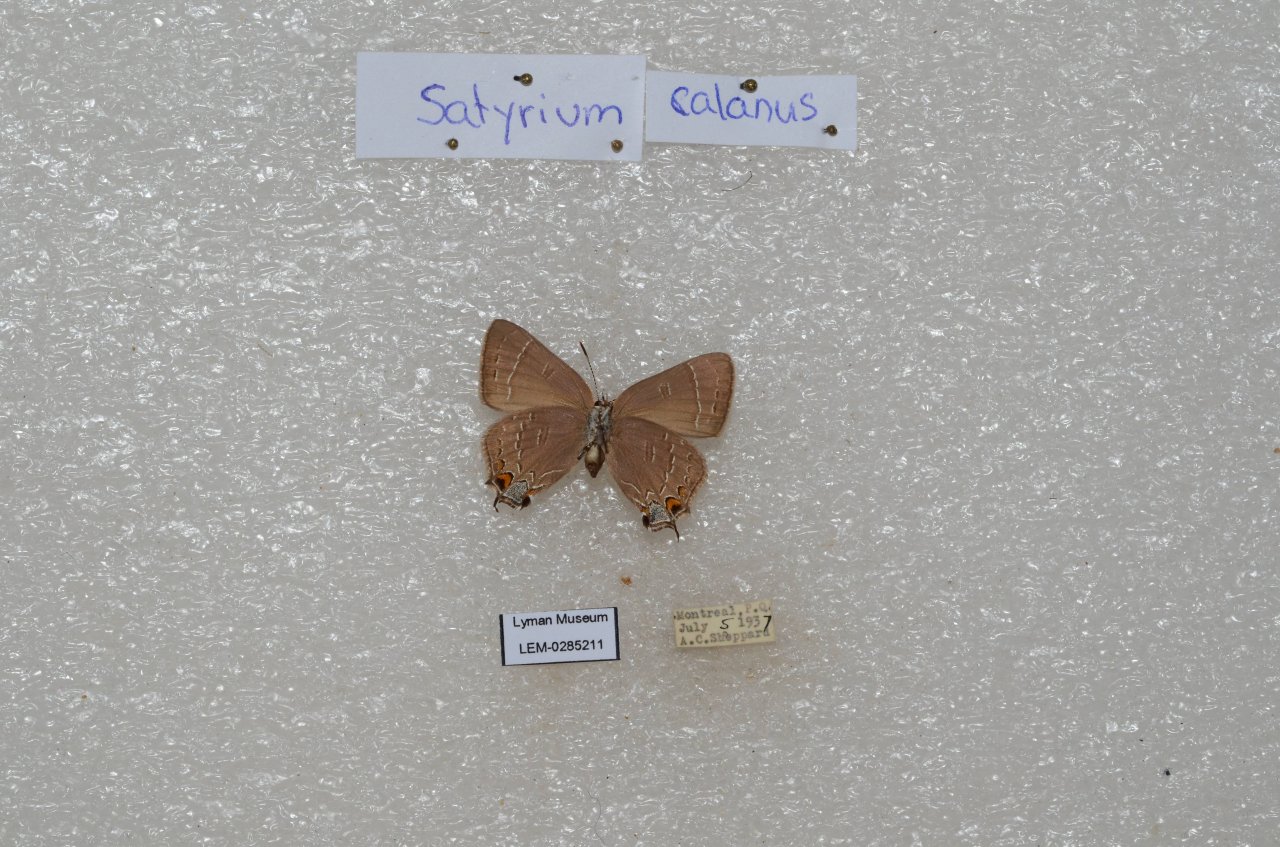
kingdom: Animalia
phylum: Arthropoda
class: Insecta
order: Lepidoptera
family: Lycaenidae
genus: Satyrium
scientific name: Satyrium calanus
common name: Banded Hairstreak
